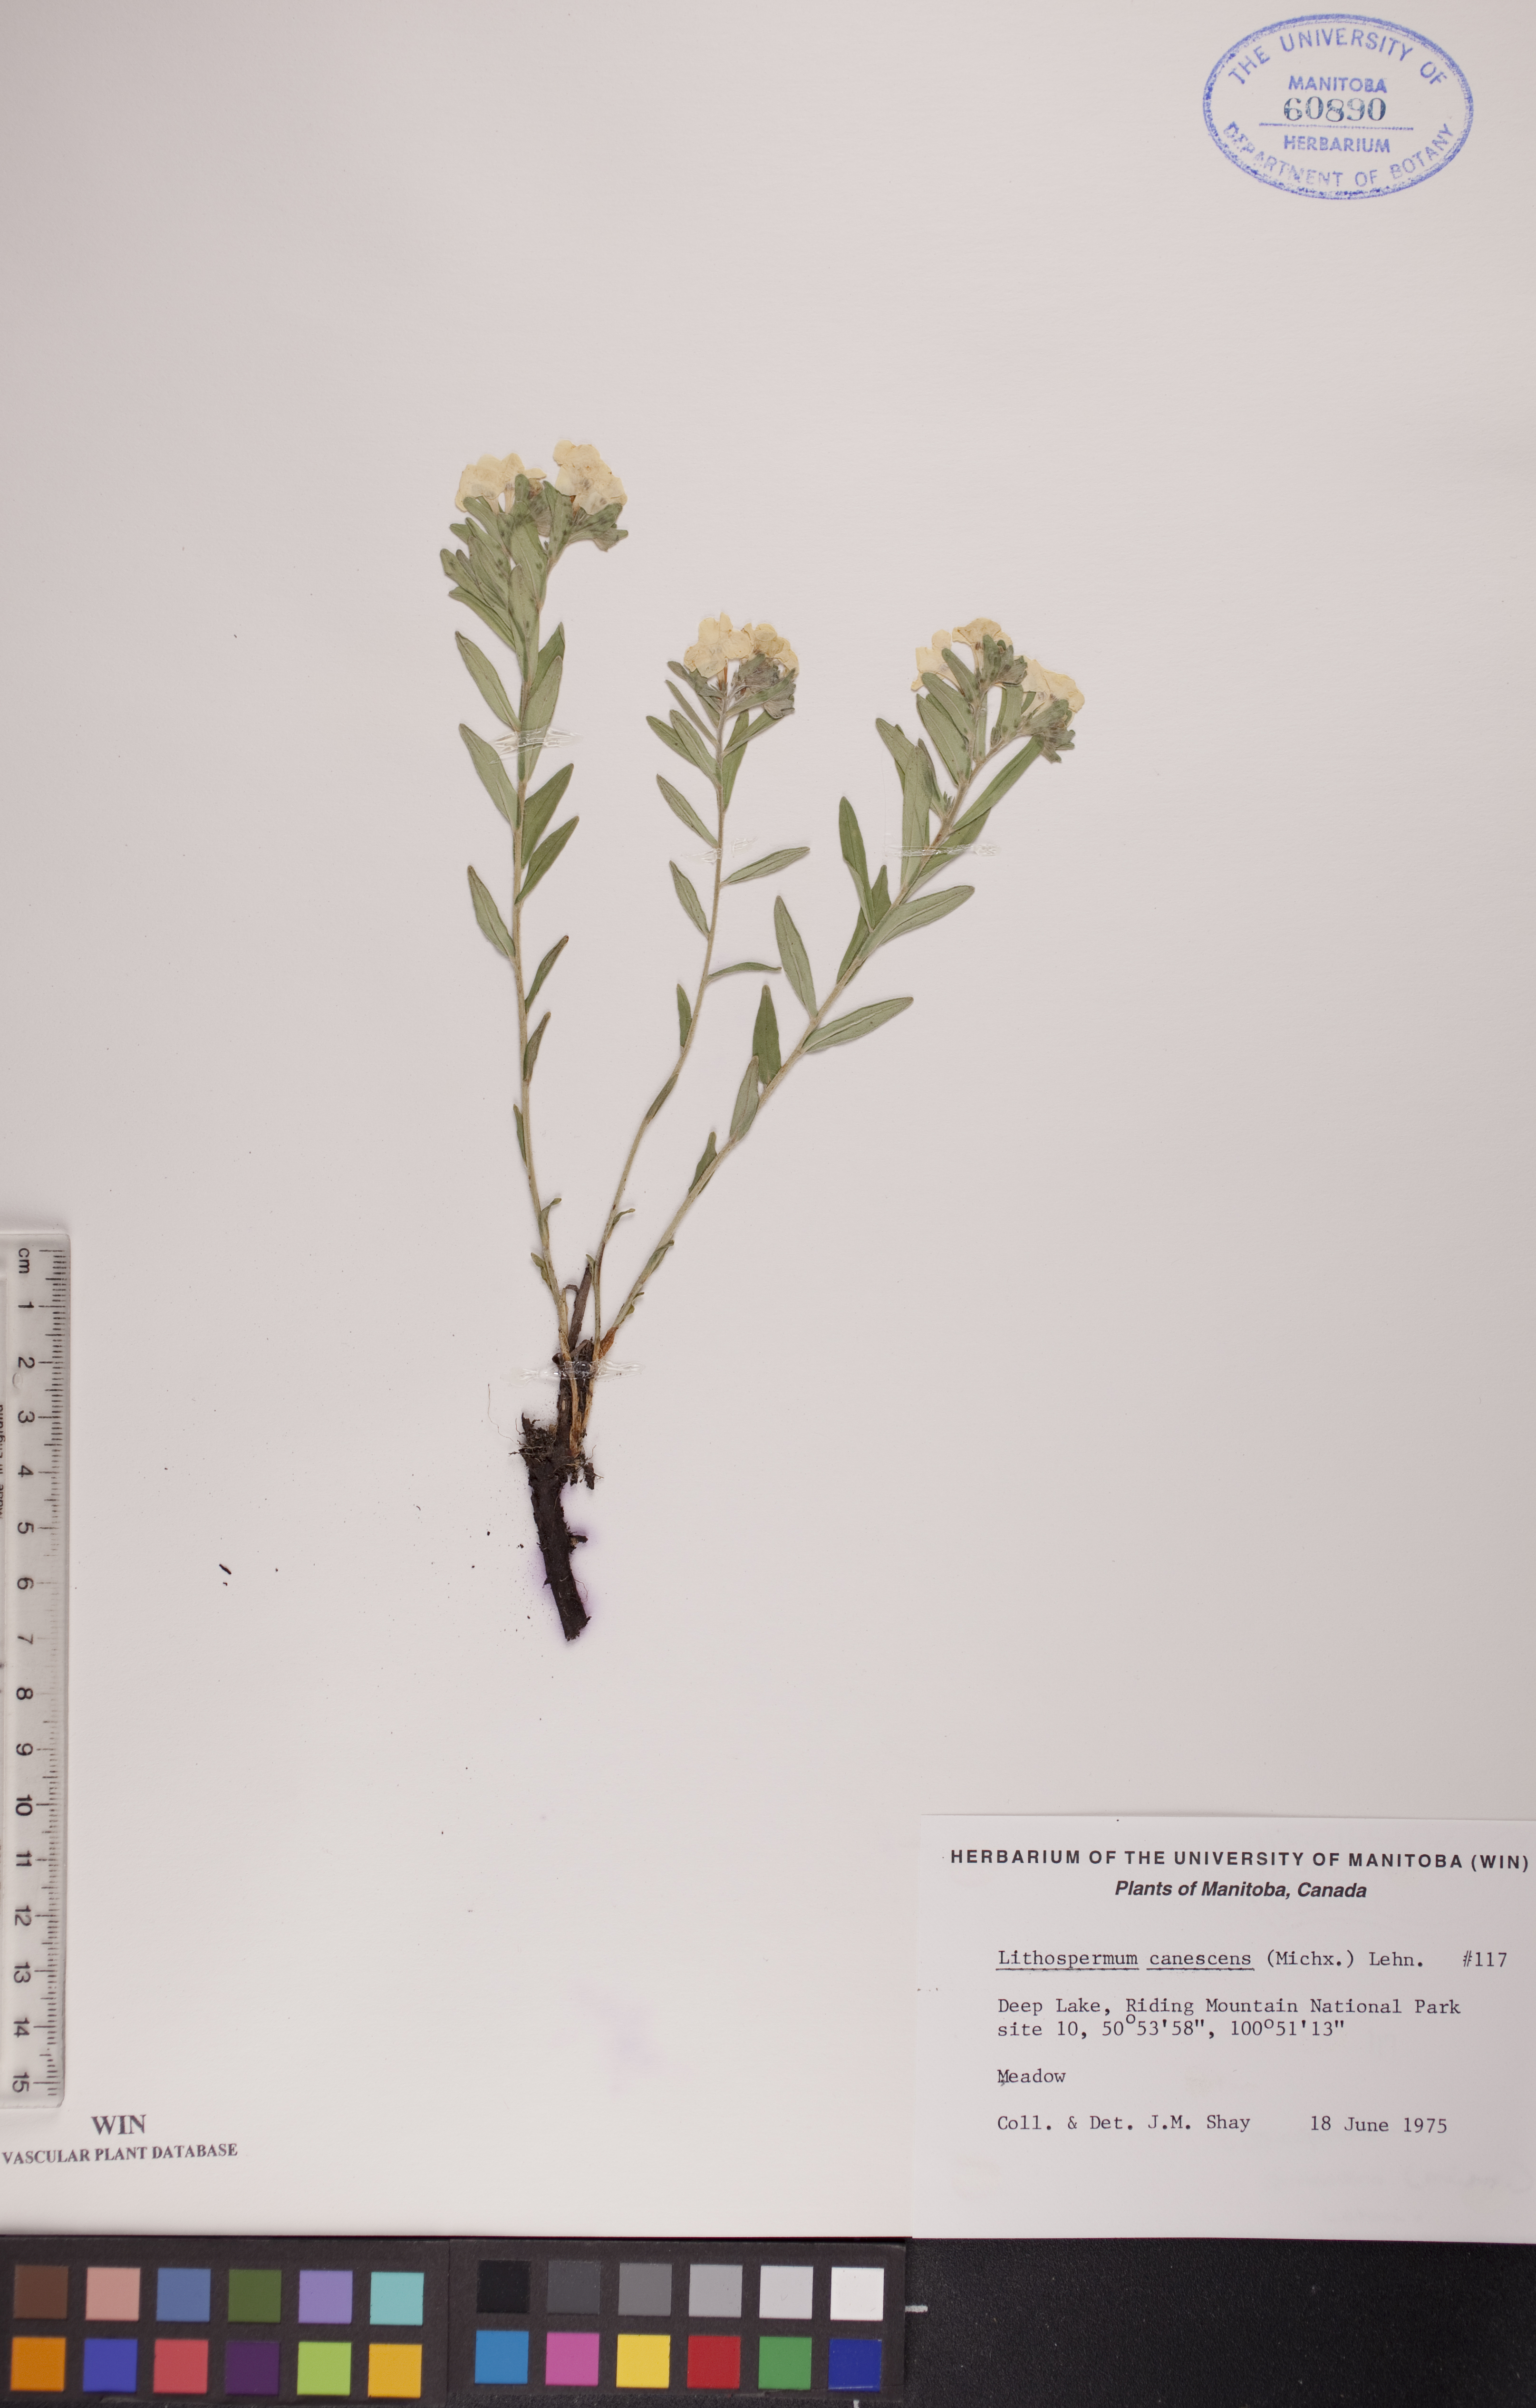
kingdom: Plantae
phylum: Tracheophyta
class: Magnoliopsida
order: Boraginales
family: Boraginaceae
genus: Lithospermum
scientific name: Lithospermum canescens
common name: Hoary puccoon
